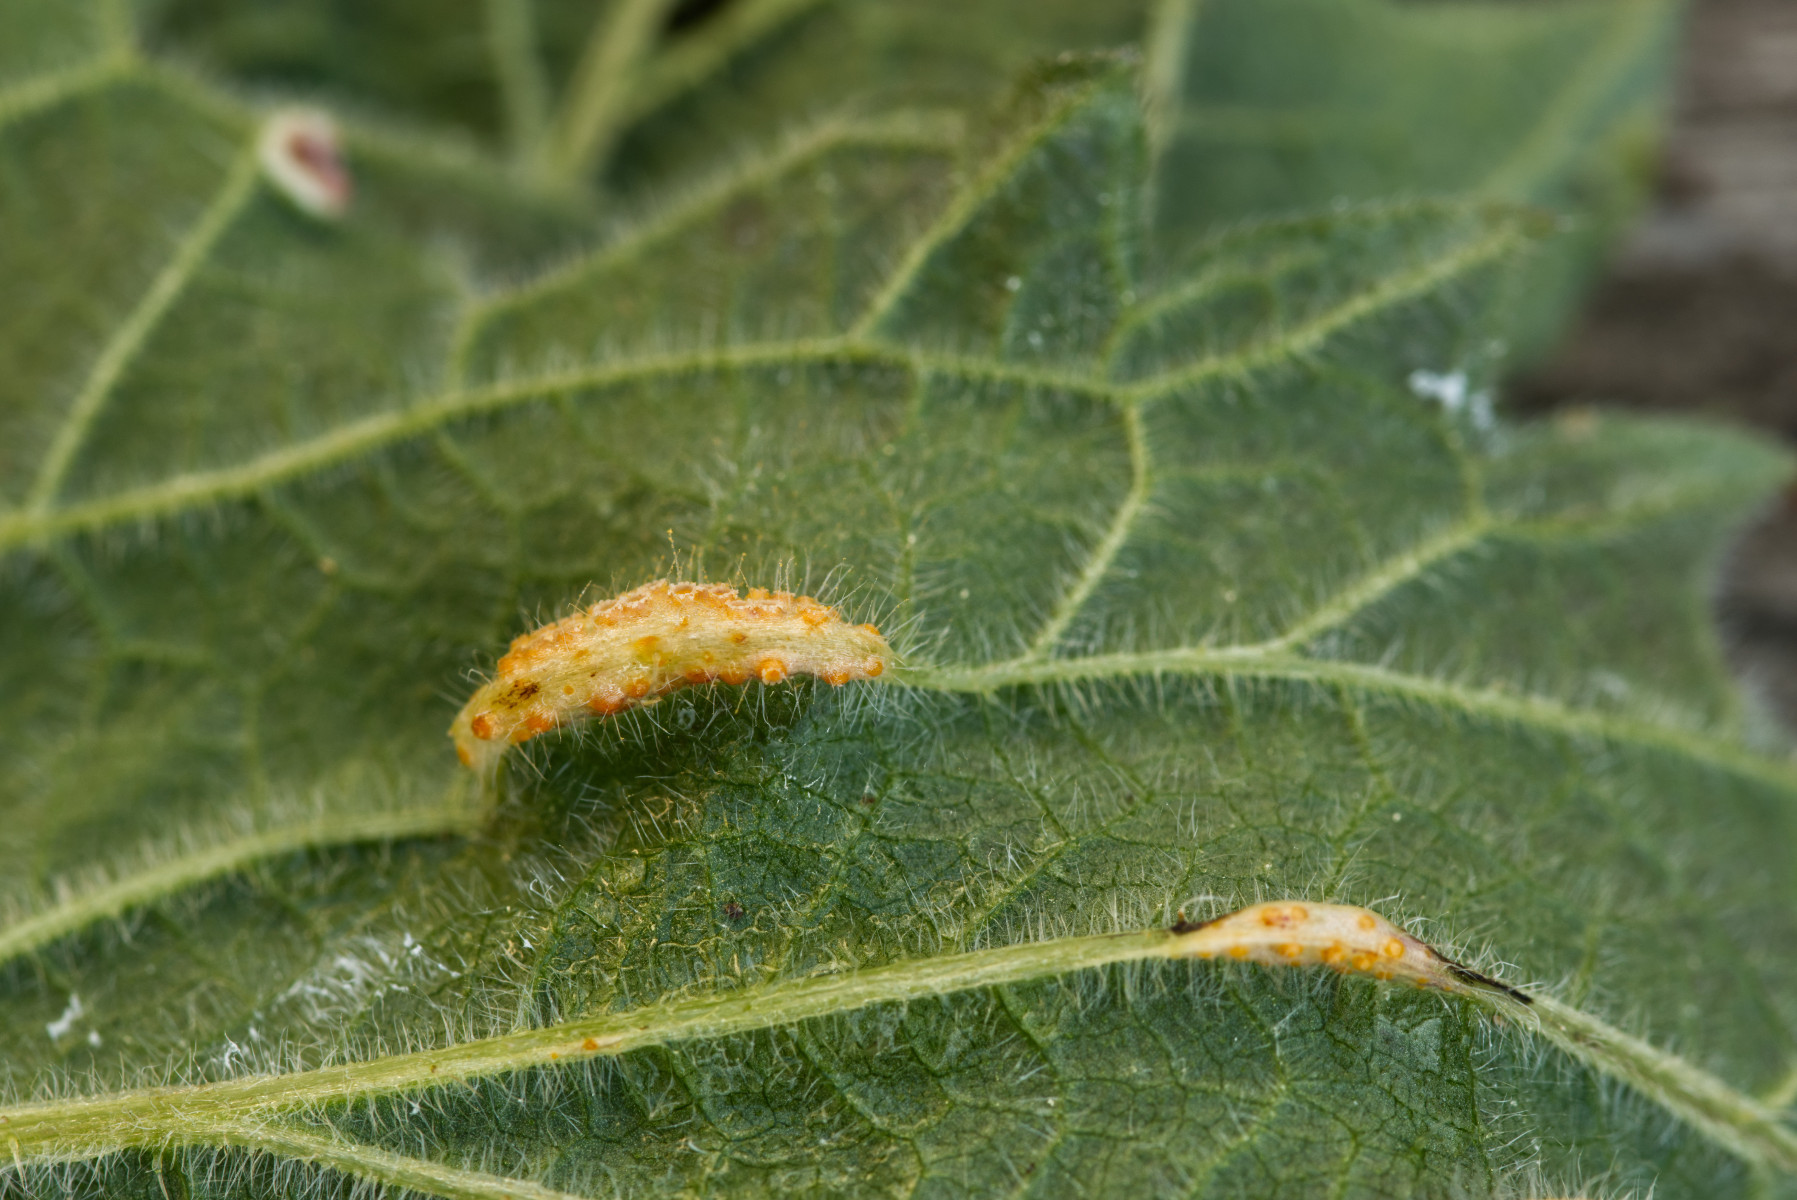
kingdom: Fungi
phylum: Basidiomycota
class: Pucciniomycetes
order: Pucciniales
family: Pucciniaceae
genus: Puccinia
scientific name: Puccinia urticata
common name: nældegalle-tvecellerust
